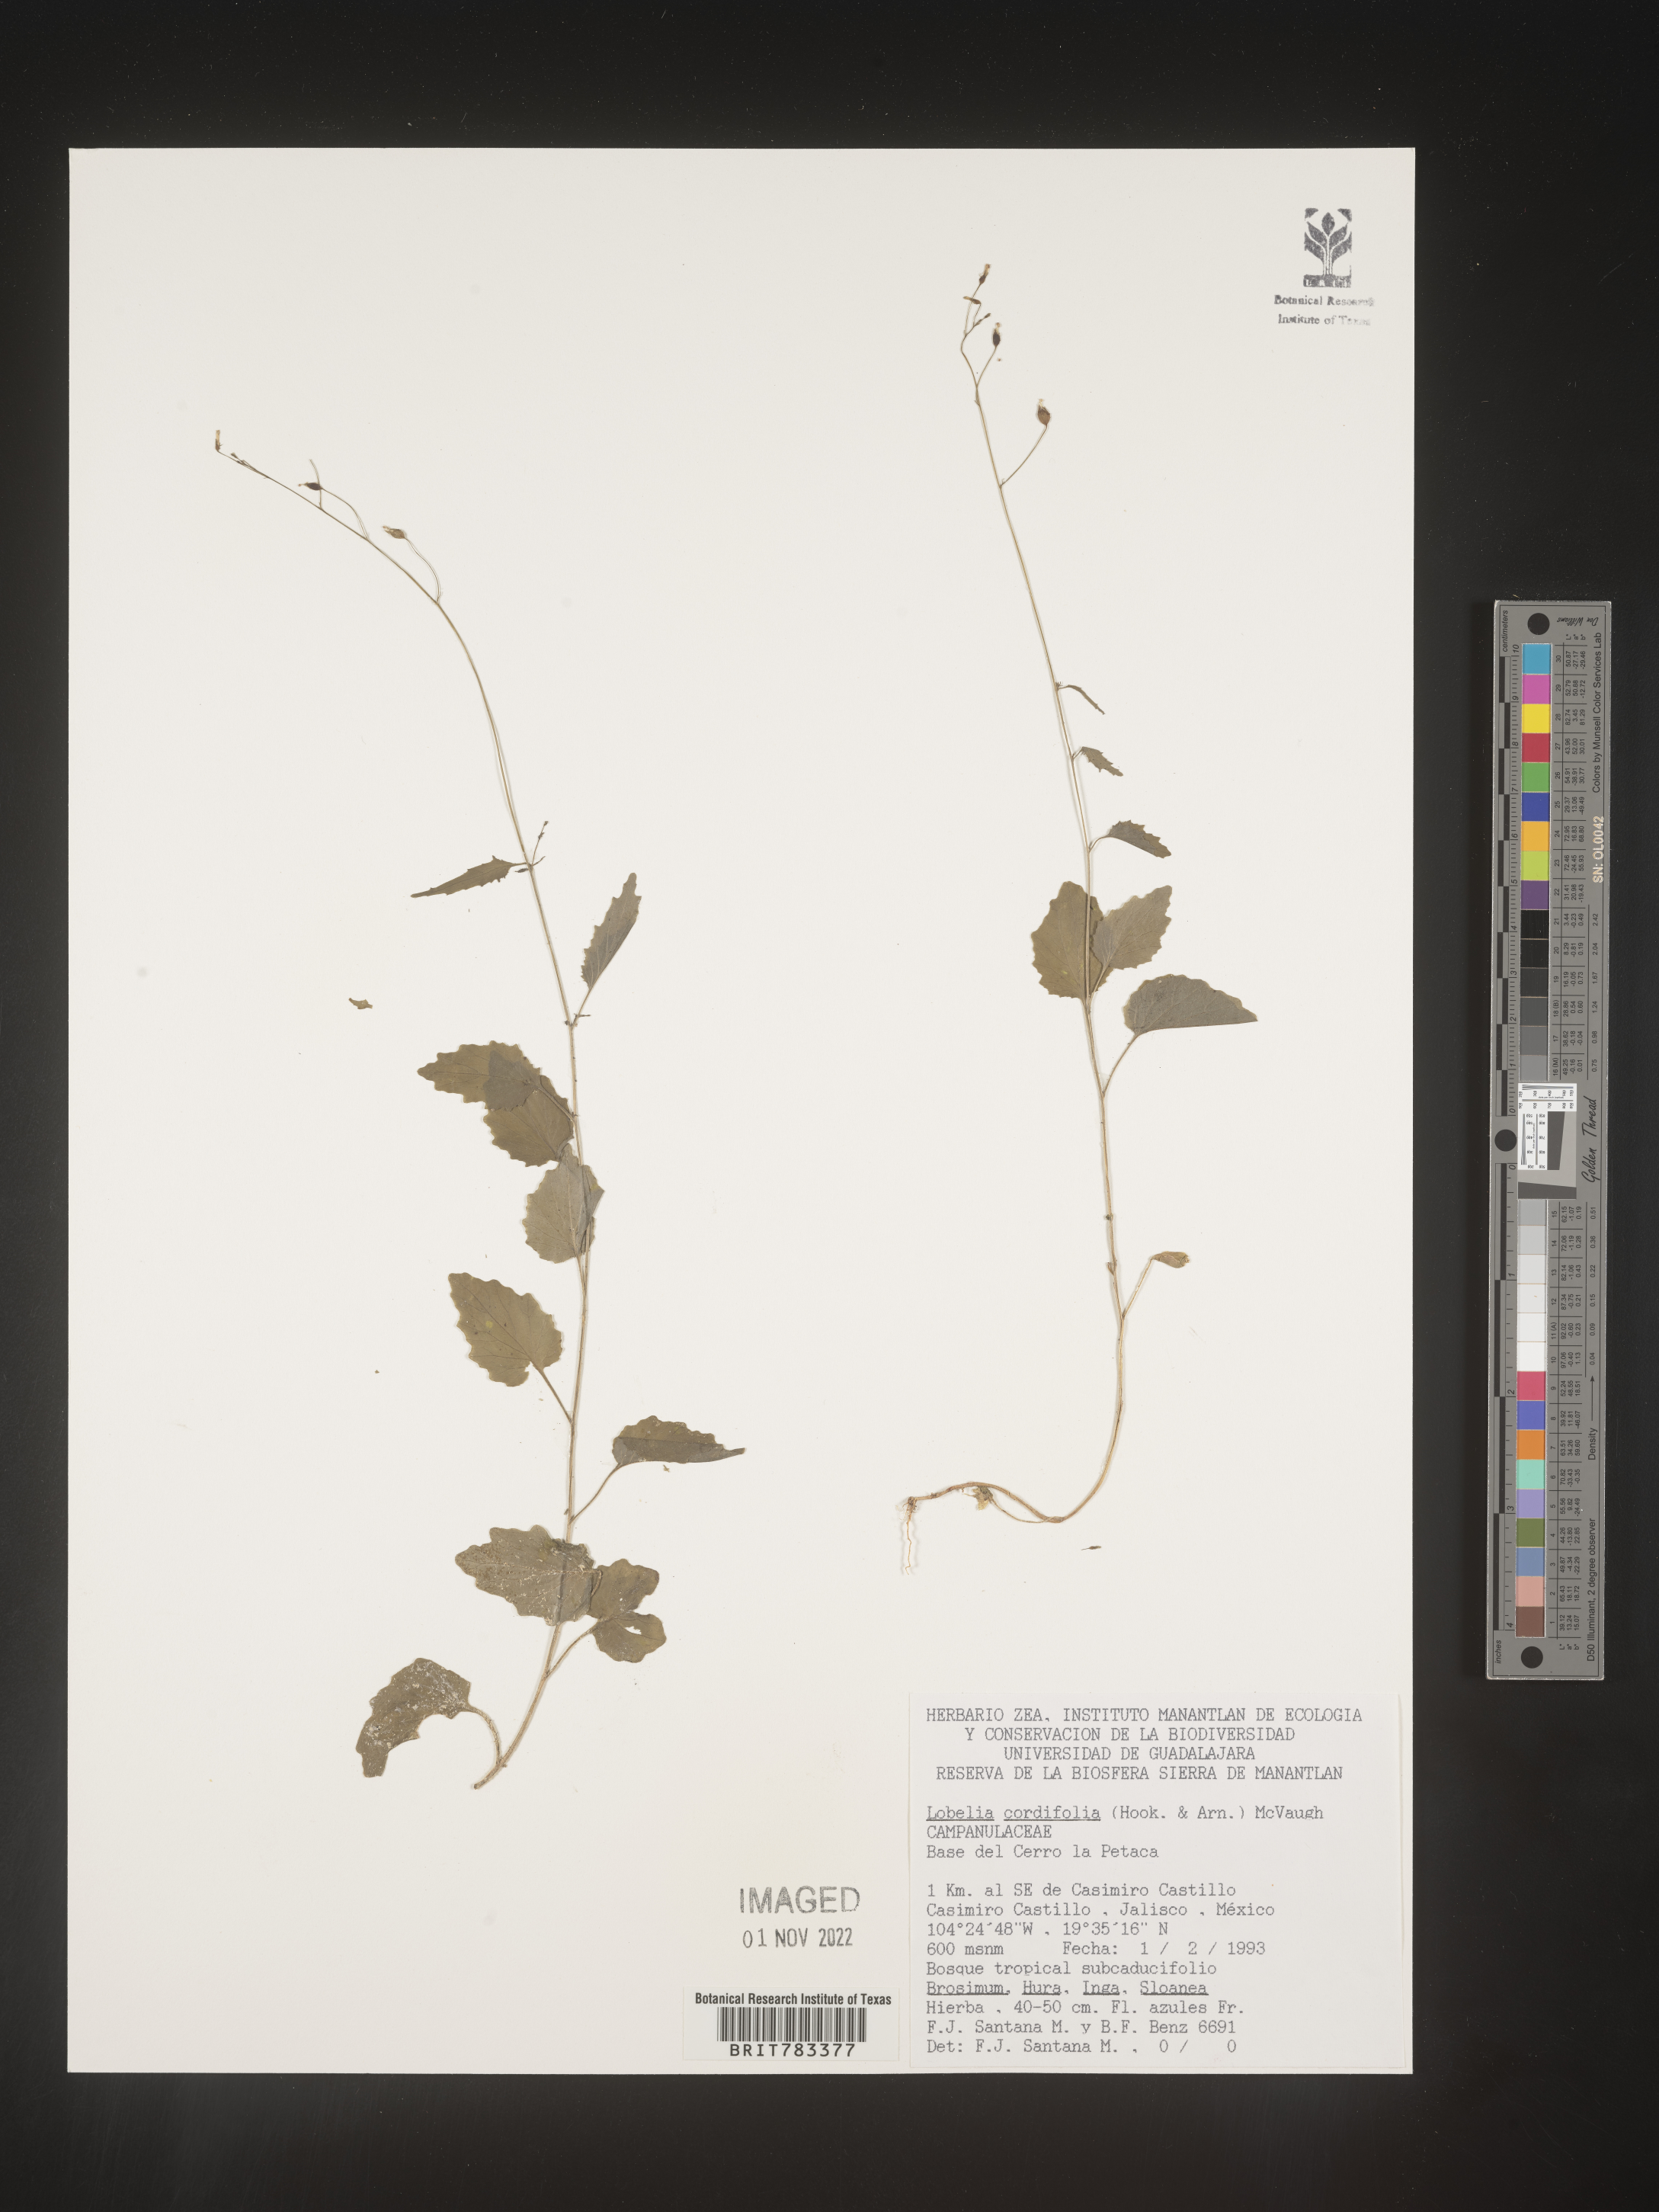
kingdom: Plantae
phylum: Tracheophyta
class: Magnoliopsida
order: Asterales
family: Campanulaceae
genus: Lobelia
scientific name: Lobelia
